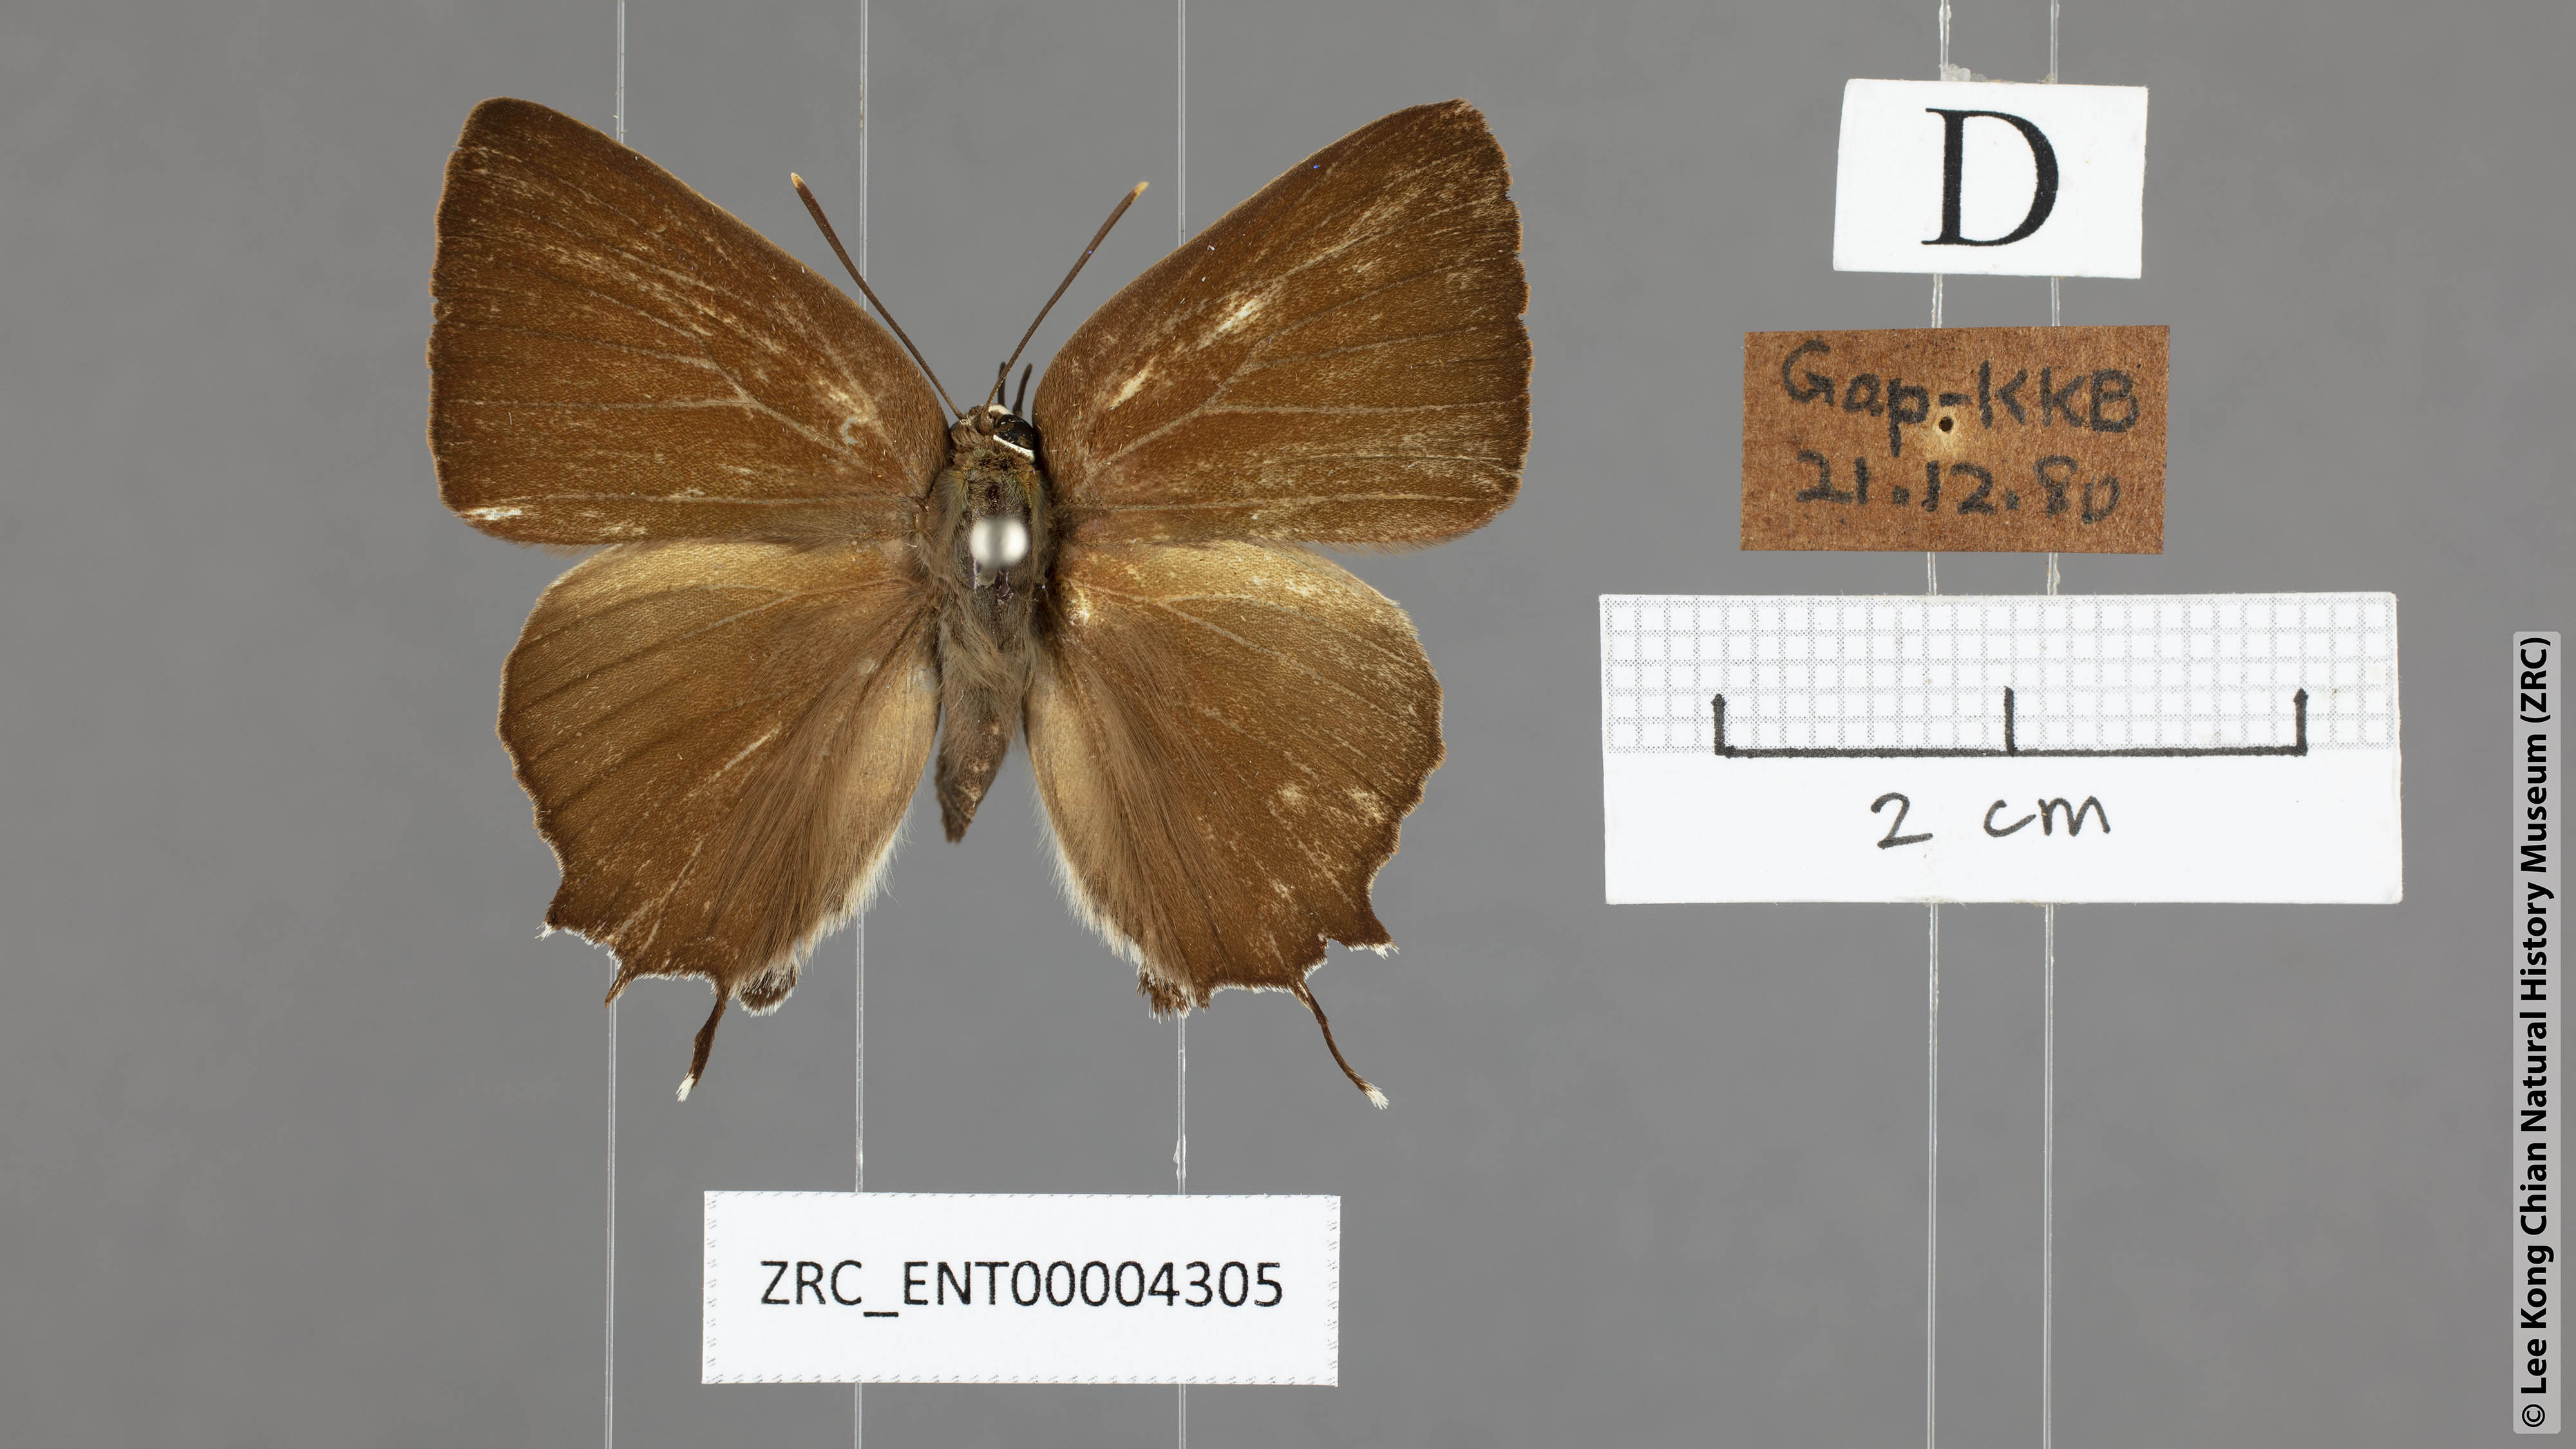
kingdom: Animalia
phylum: Arthropoda
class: Insecta
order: Lepidoptera
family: Lycaenidae
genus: Iraota
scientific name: Iraota rochana
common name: Scarce silverstreak blue
